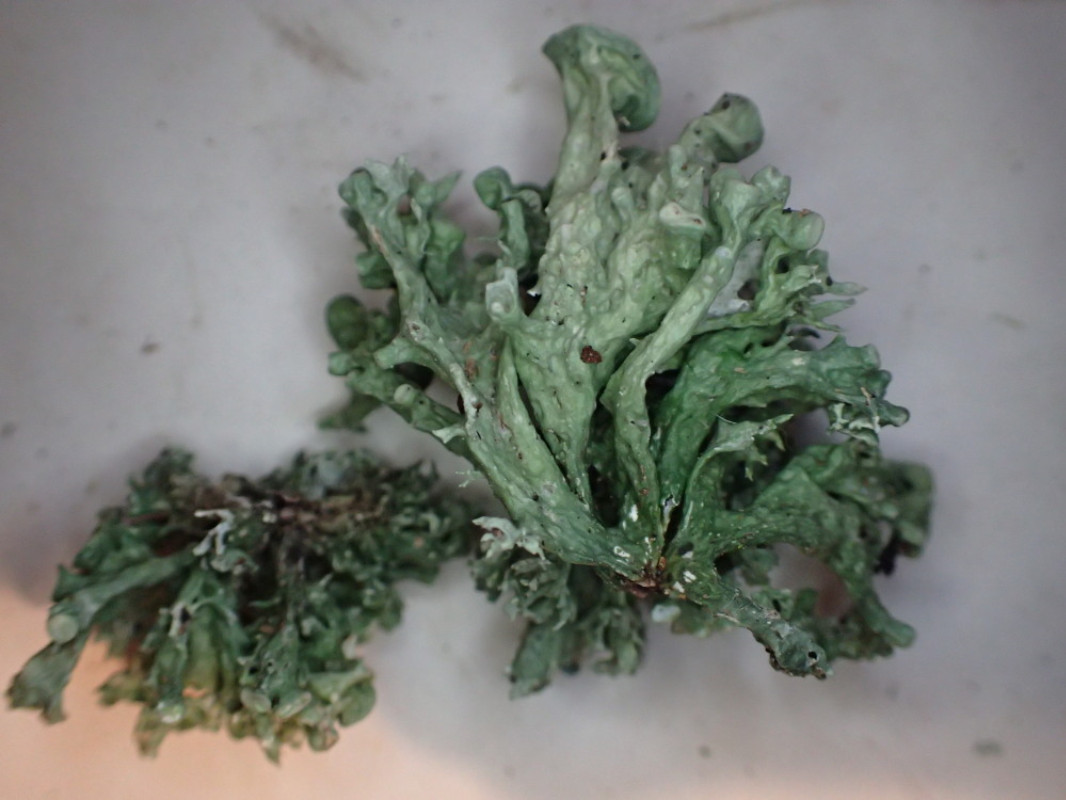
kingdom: Fungi
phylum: Ascomycota
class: Lecanoromycetes
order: Lecanorales
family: Ramalinaceae
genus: Ramalina
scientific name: Ramalina fastigiata
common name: tue-grenlav
